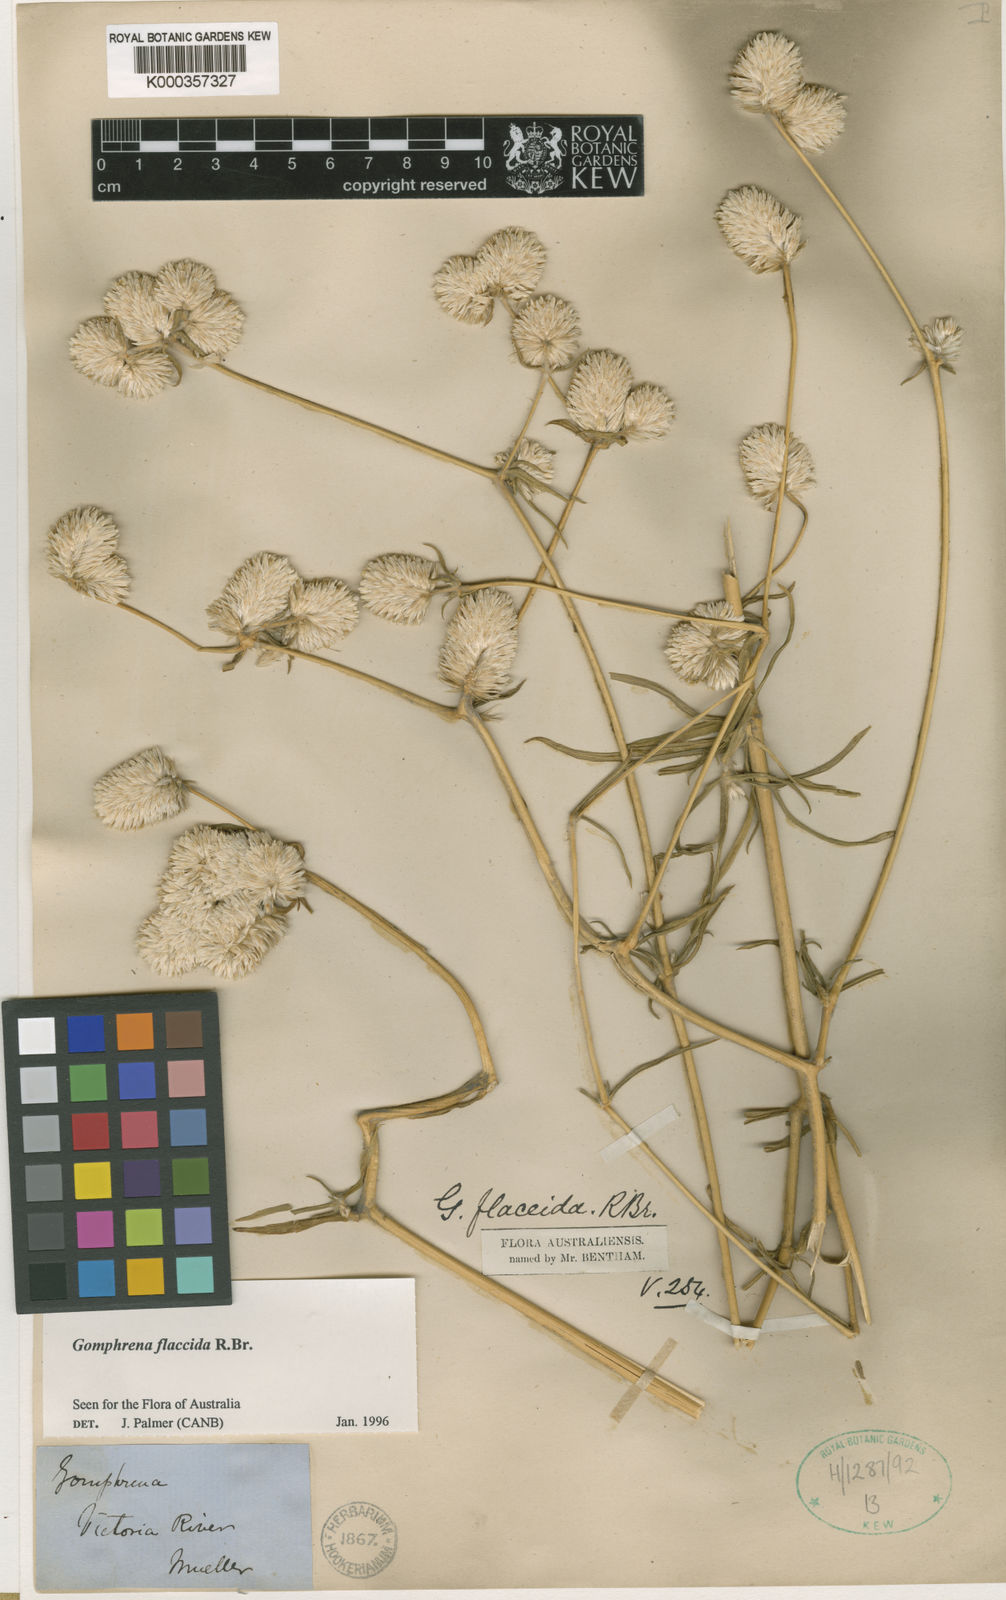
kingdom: Plantae
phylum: Tracheophyta
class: Magnoliopsida
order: Caryophyllales
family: Amaranthaceae
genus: Gomphrena
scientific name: Gomphrena flaccida
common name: Gomphrena-weed
